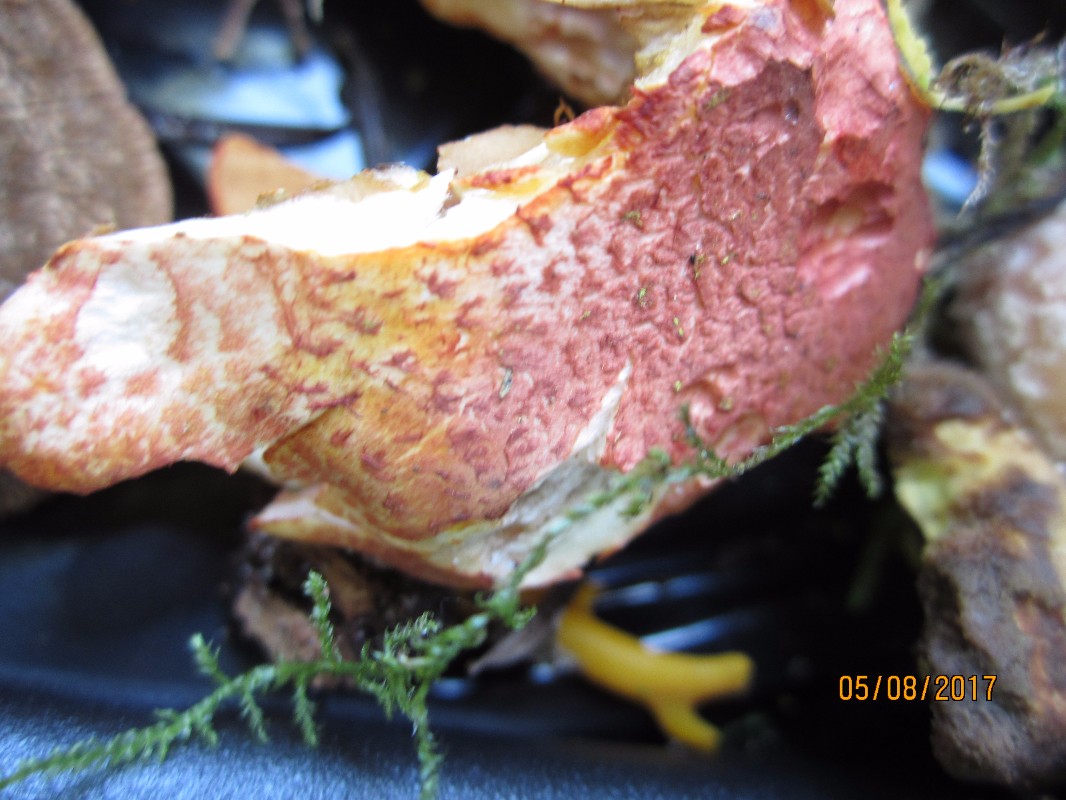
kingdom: Fungi
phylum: Basidiomycota
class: Agaricomycetes
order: Agaricales
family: Cortinariaceae
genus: Cortinarius
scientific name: Cortinarius bolaris
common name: cinnoberskællet slørhat
